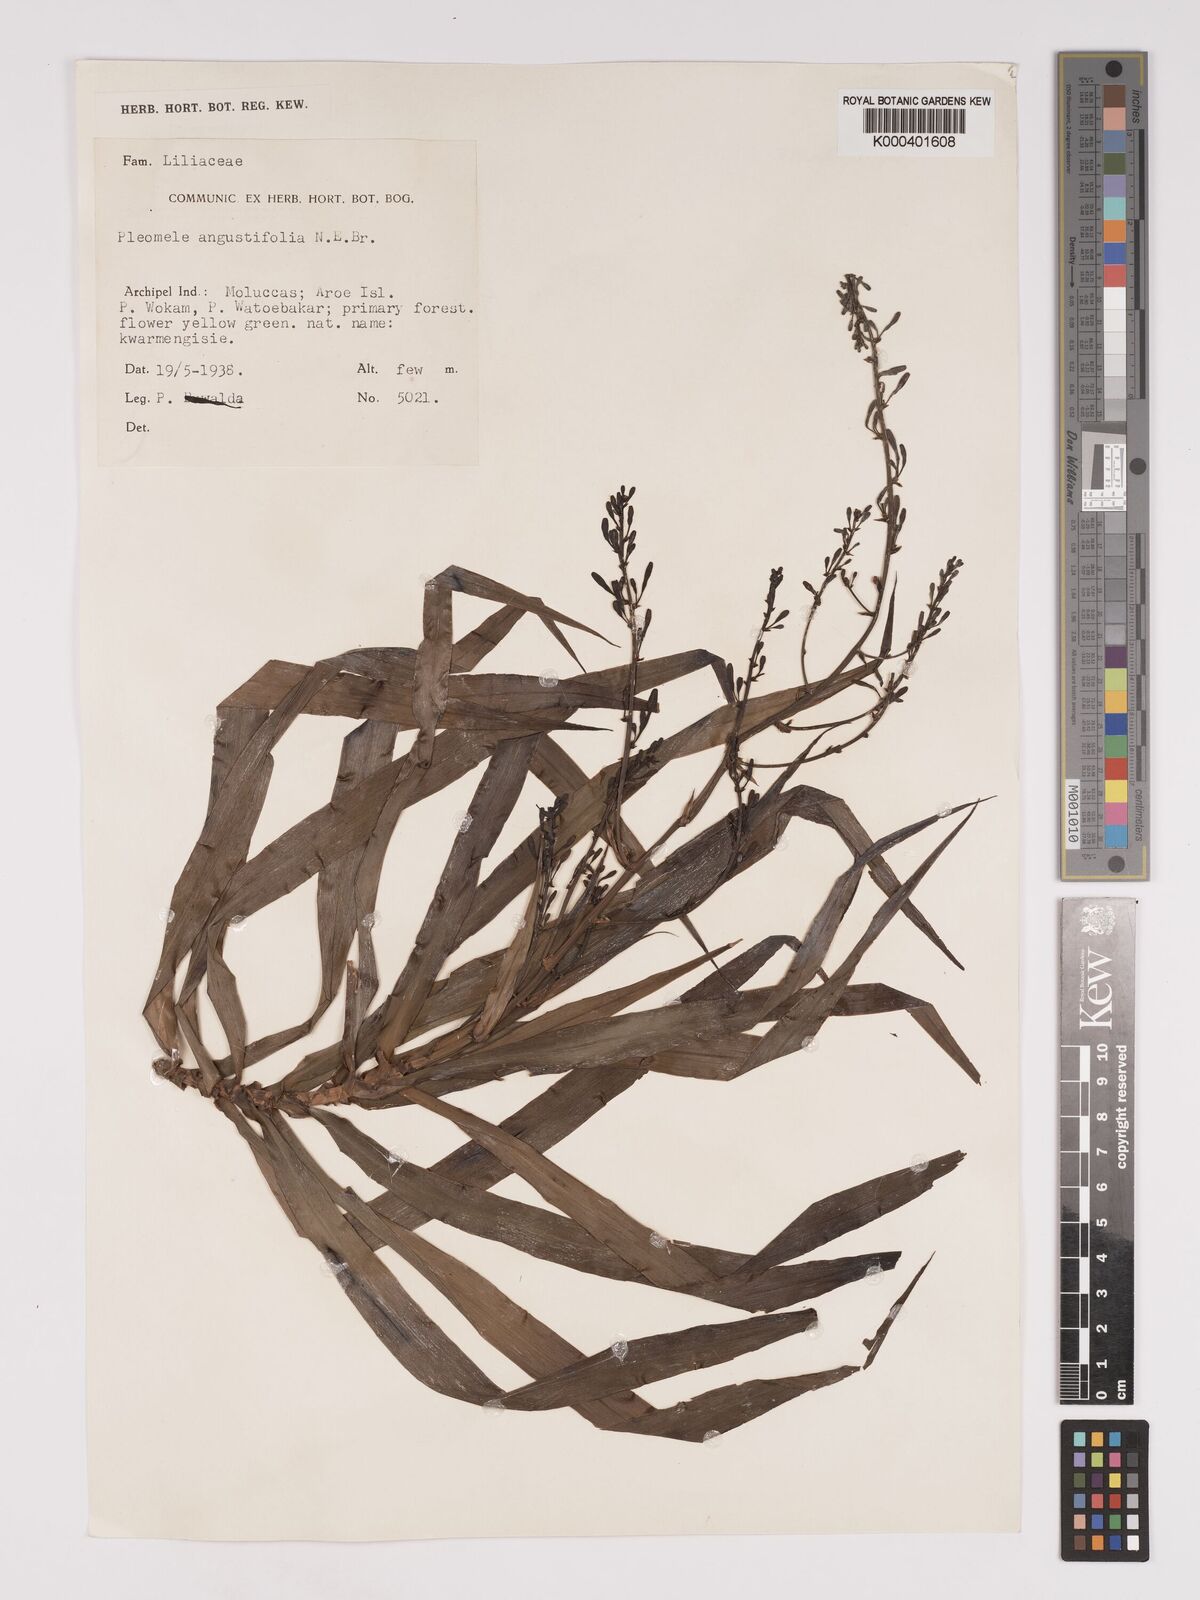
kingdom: Plantae
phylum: Tracheophyta
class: Liliopsida
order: Asparagales
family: Asparagaceae
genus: Dracaena
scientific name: Dracaena angustifolia
